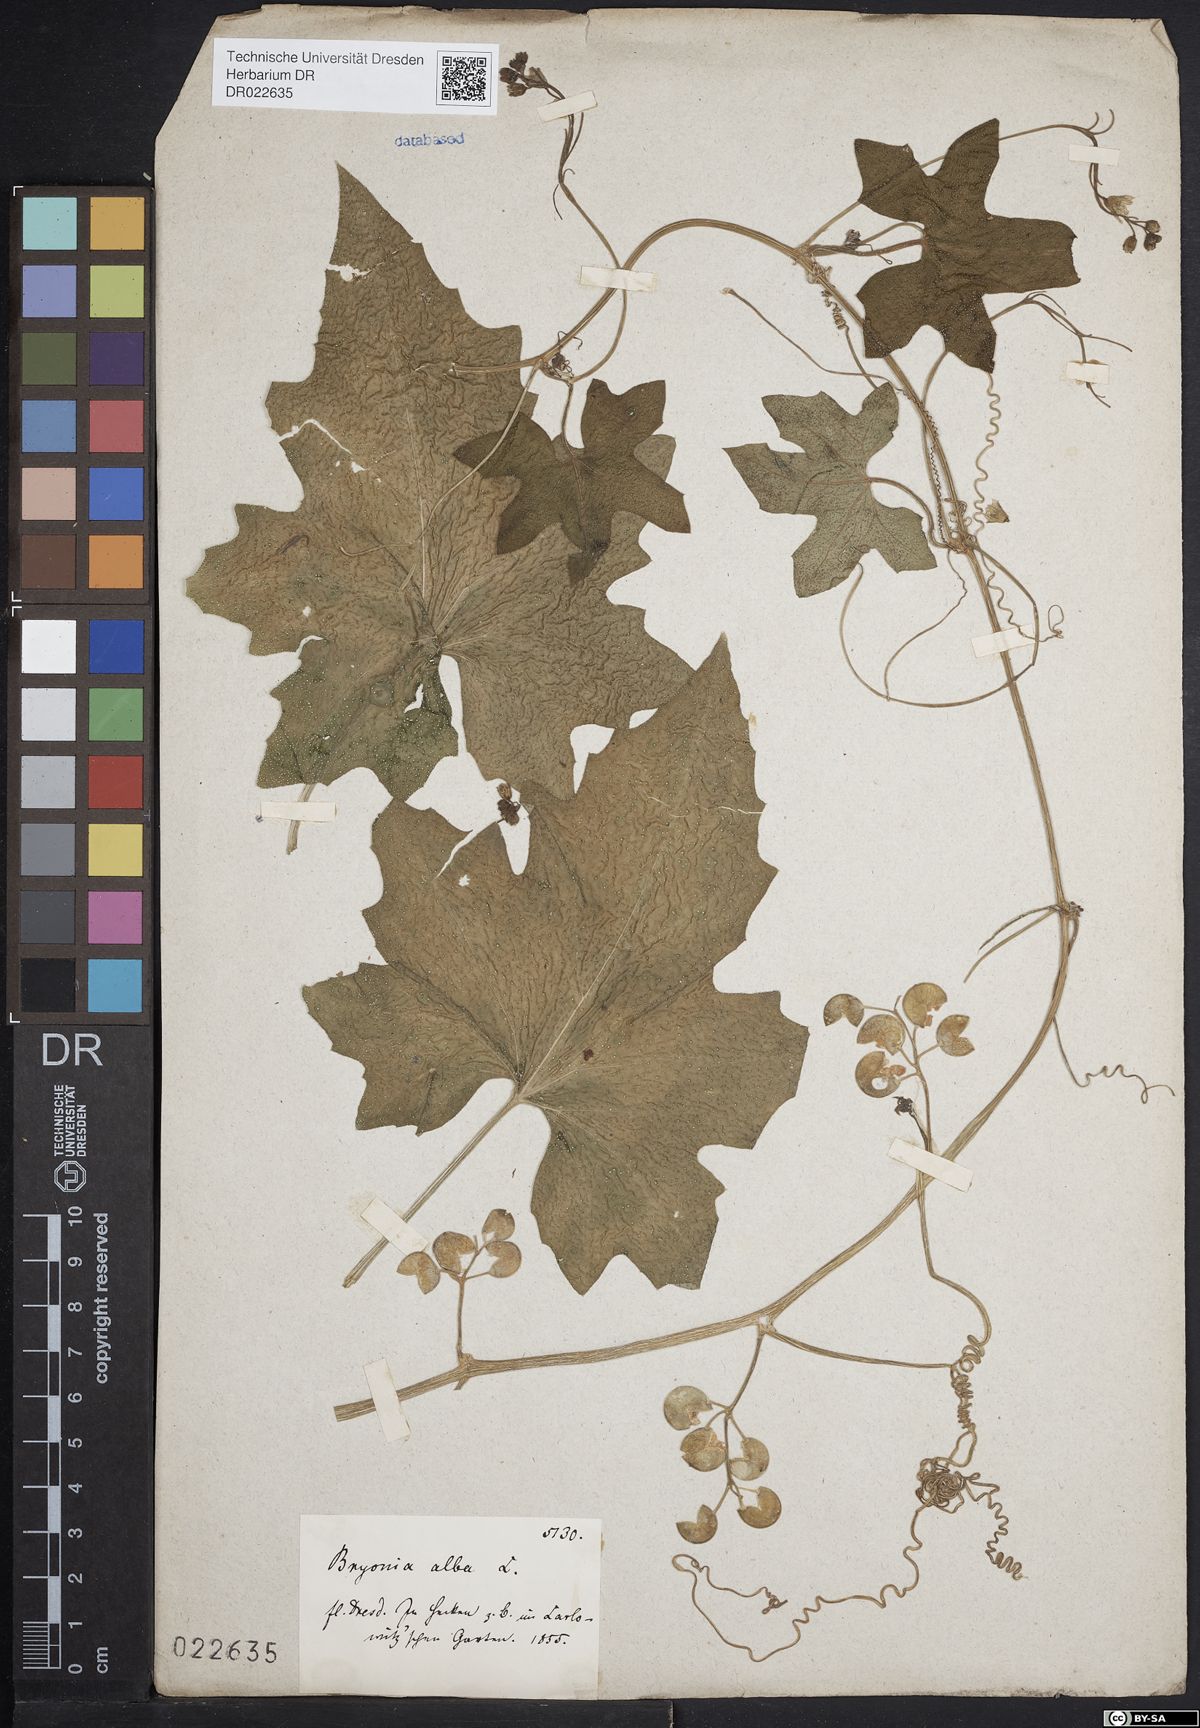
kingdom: Plantae
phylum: Tracheophyta
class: Magnoliopsida
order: Cucurbitales
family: Cucurbitaceae
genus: Bryonia
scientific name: Bryonia alba
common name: White bryony
